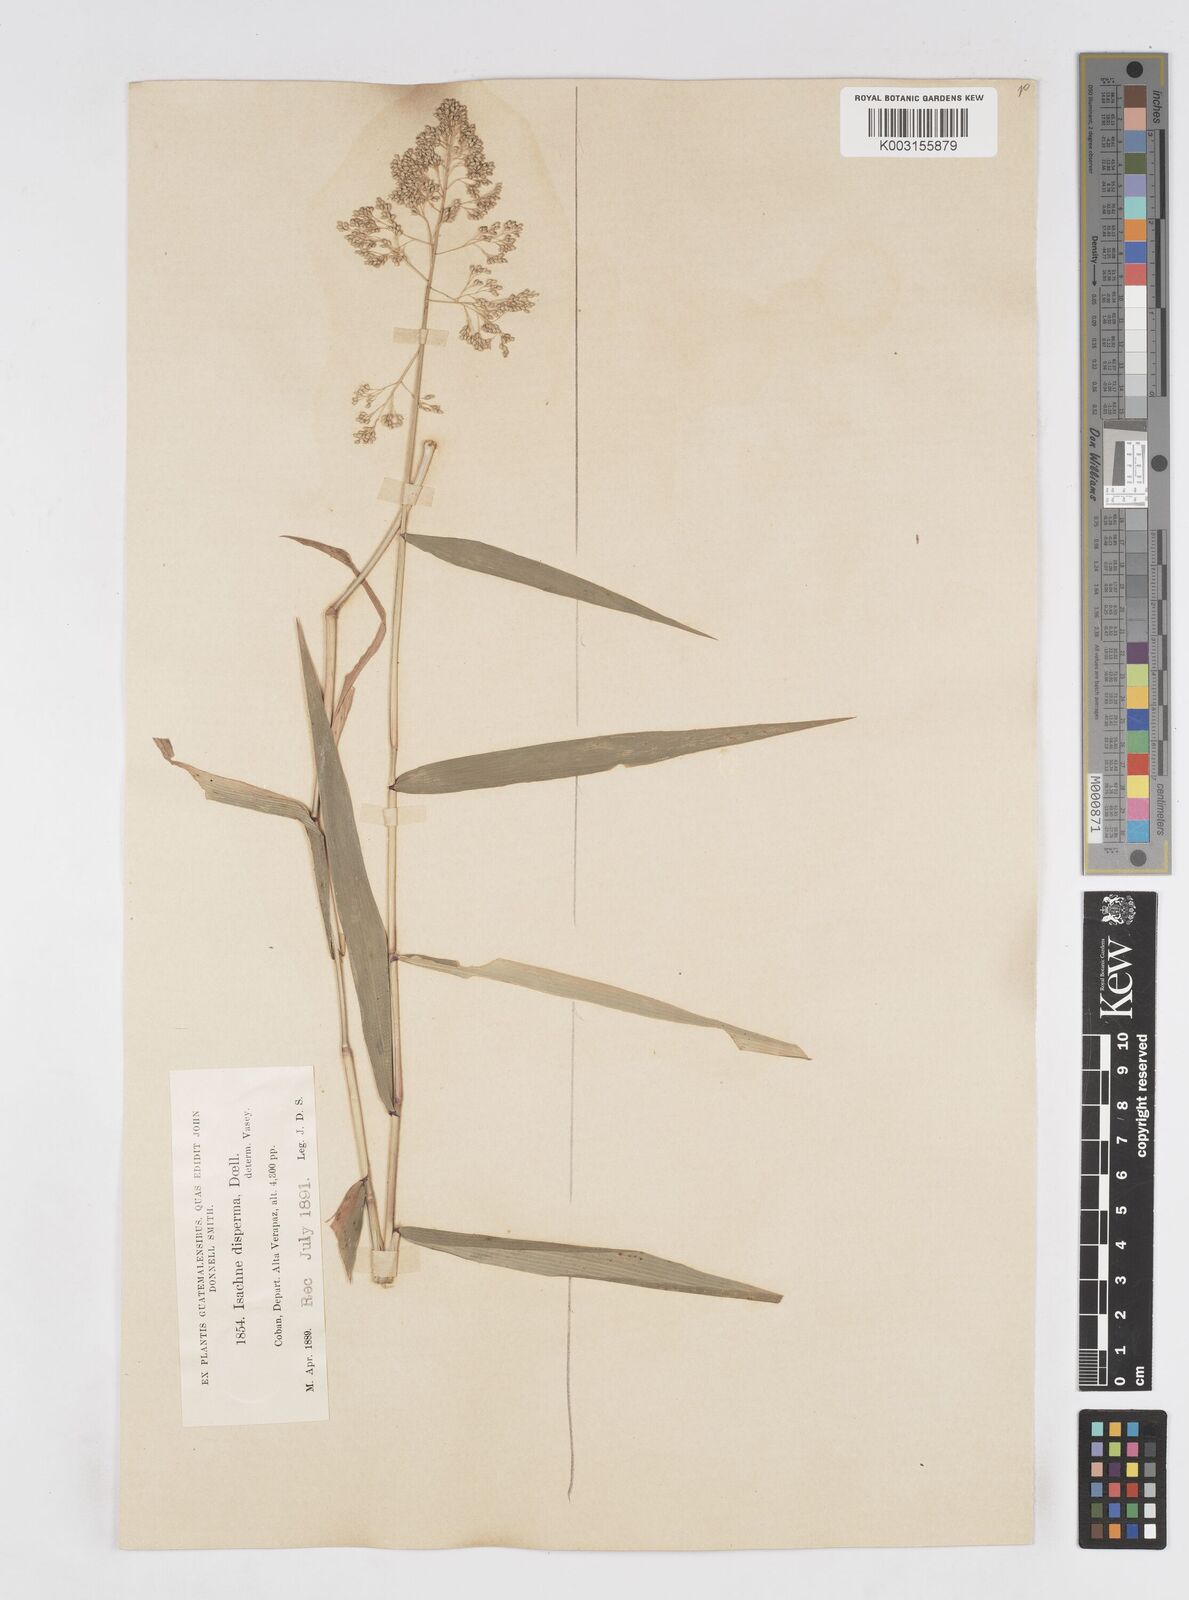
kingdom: Plantae
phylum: Tracheophyta
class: Liliopsida
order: Poales
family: Poaceae
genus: Isachne
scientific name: Isachne arundinacea
